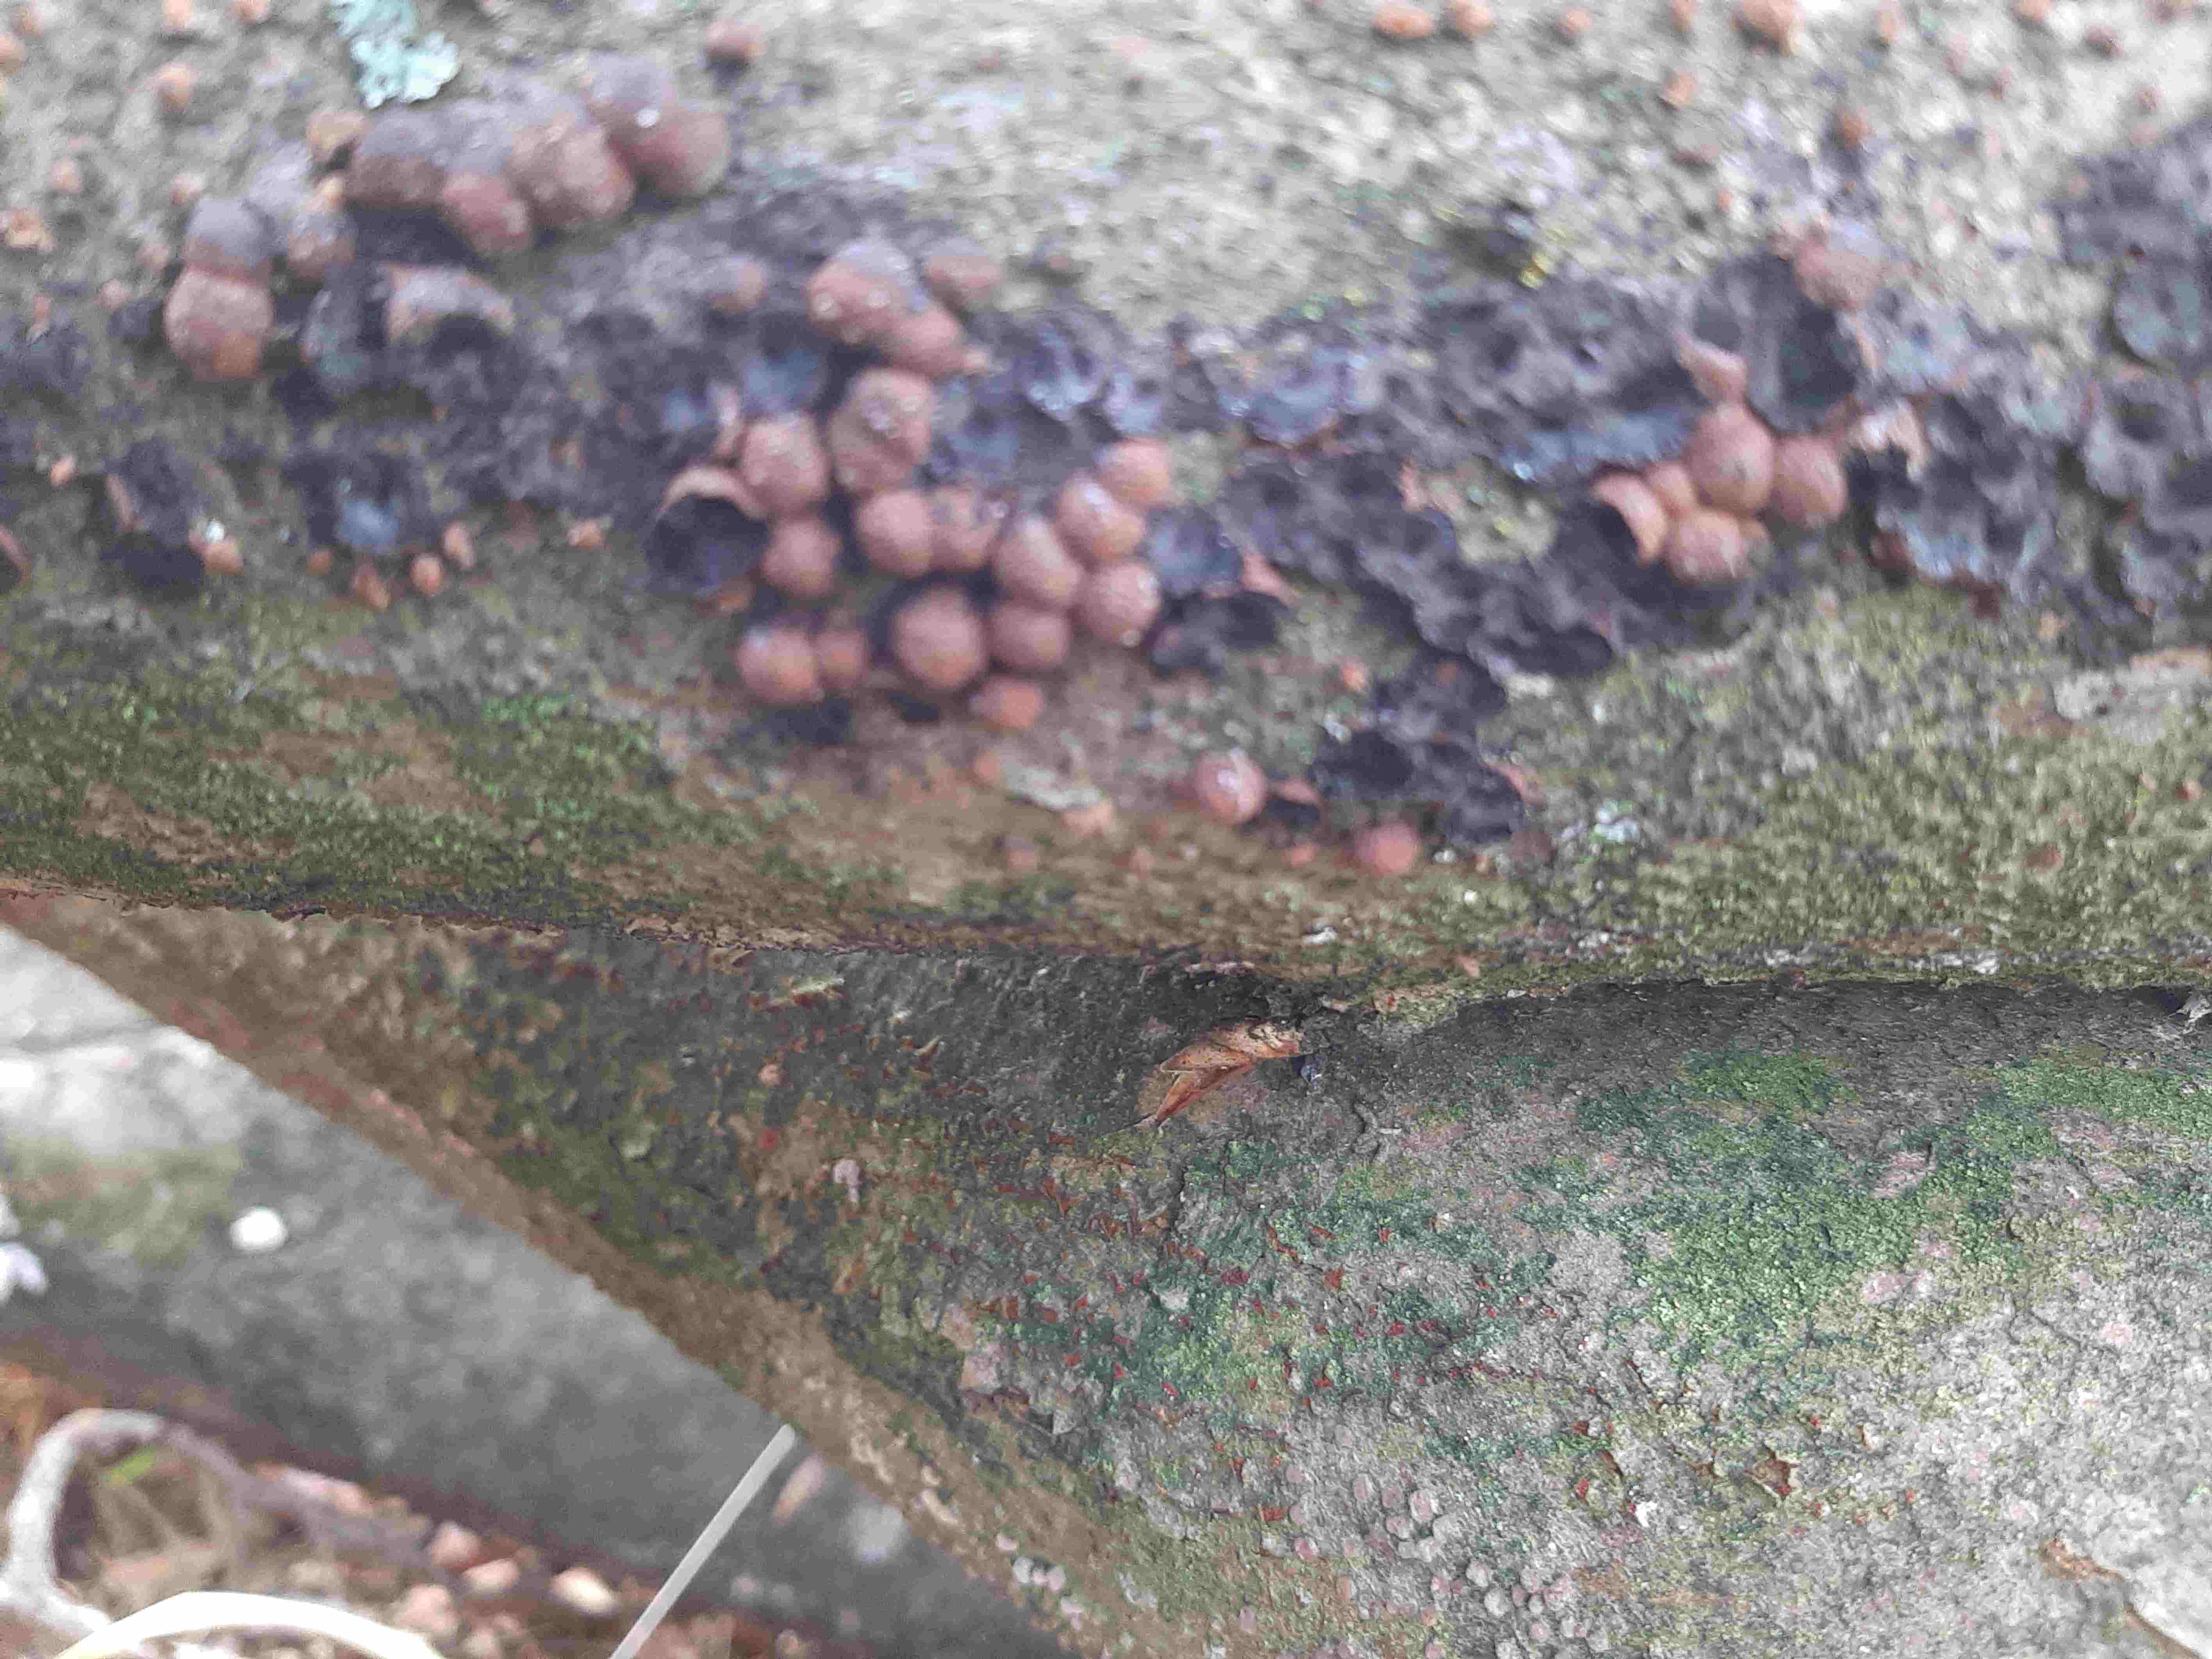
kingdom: Fungi
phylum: Ascomycota
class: Sordariomycetes
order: Xylariales
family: Hypoxylaceae
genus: Hypoxylon
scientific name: Hypoxylon fragiforme
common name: kuljordbær
